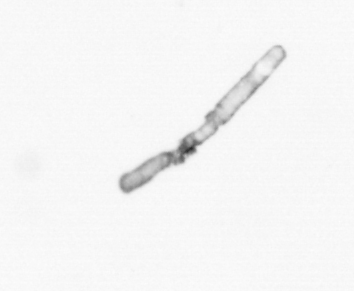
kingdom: Chromista
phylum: Ochrophyta
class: Bacillariophyceae
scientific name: Bacillariophyceae
